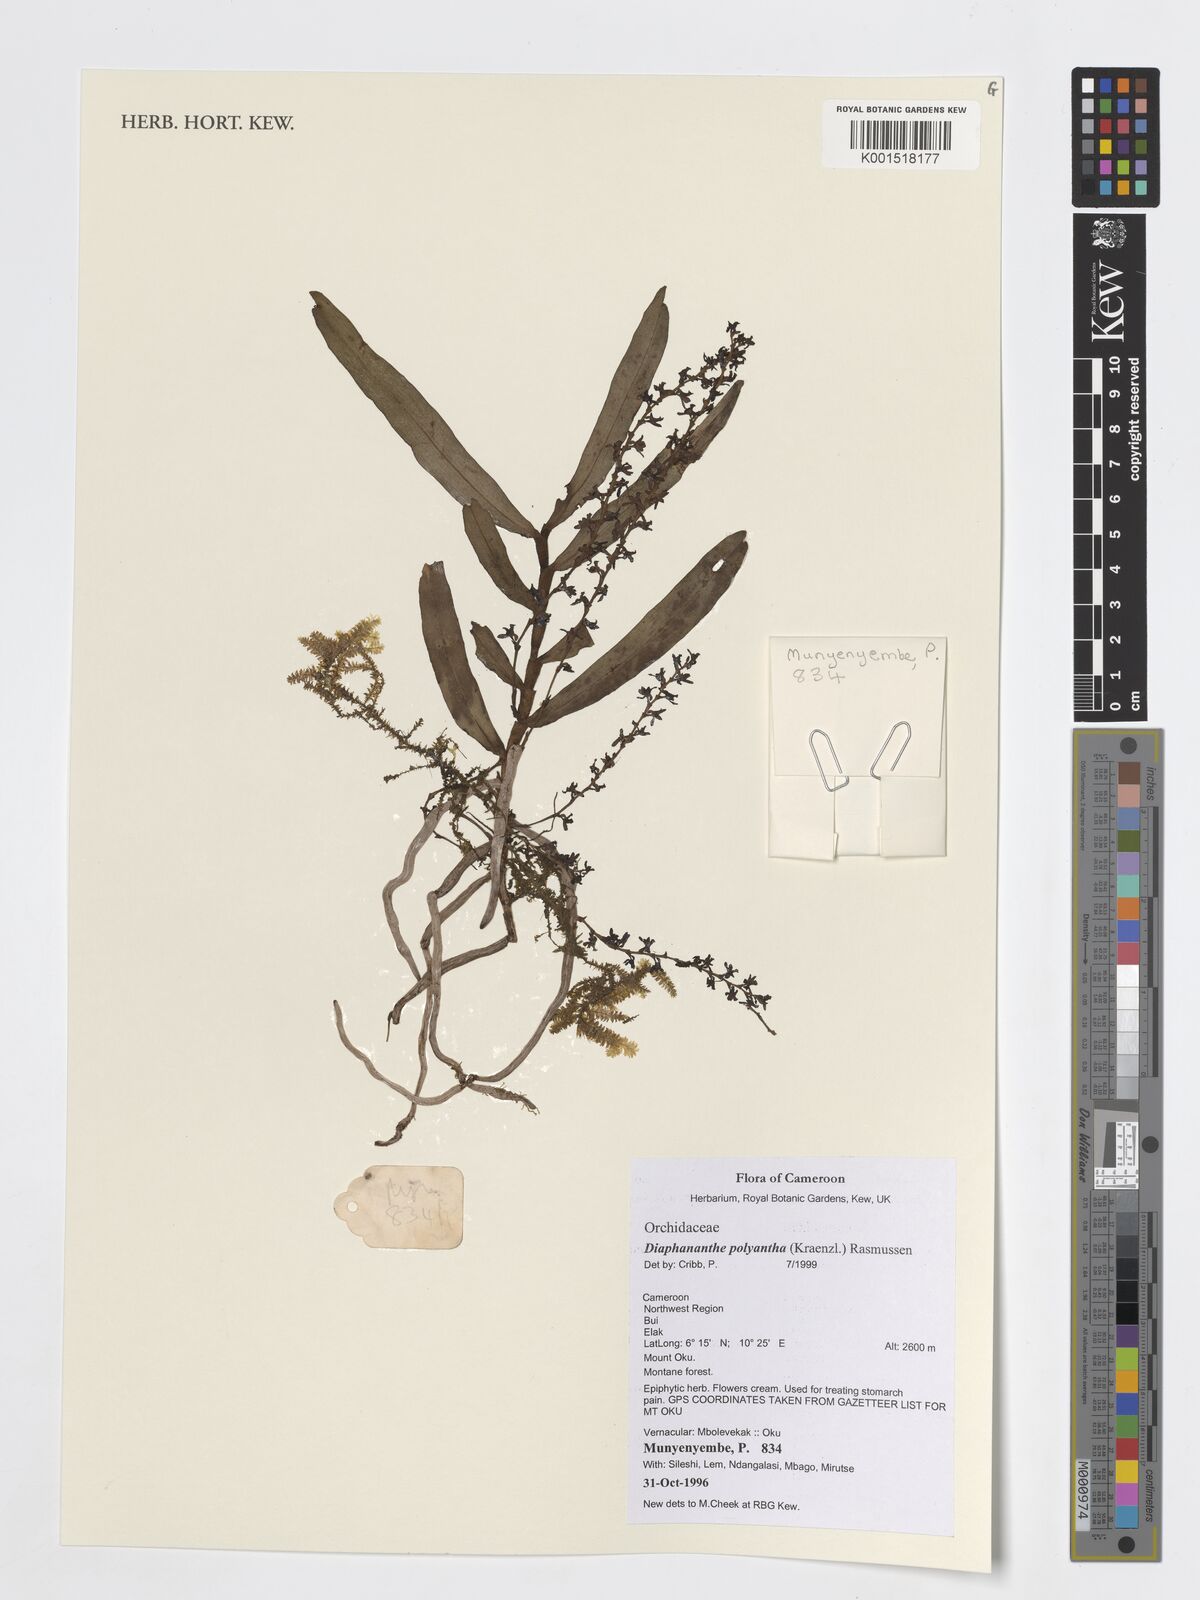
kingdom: Plantae
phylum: Tracheophyta
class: Liliopsida
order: Asparagales
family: Orchidaceae
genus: Rhipidoglossum
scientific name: Rhipidoglossum polyanthum
